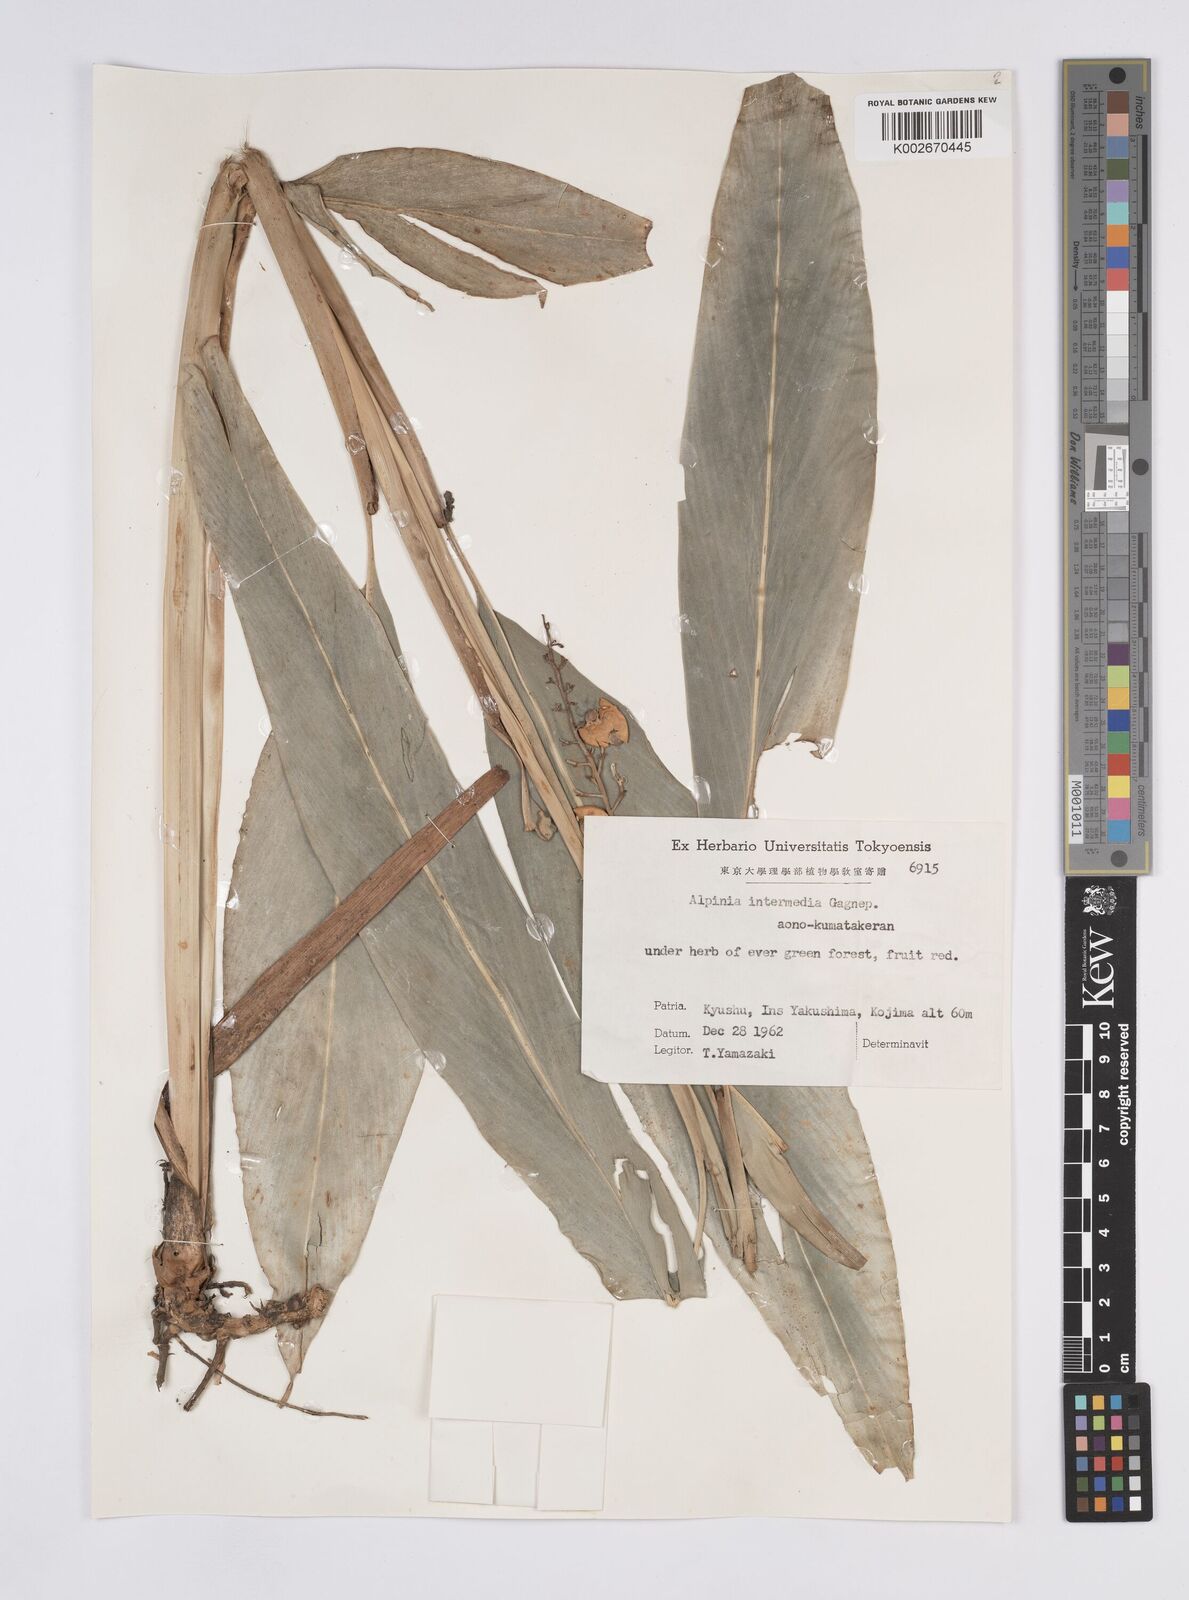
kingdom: Plantae
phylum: Tracheophyta
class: Liliopsida
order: Zingiberales
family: Zingiberaceae
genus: Alpinia
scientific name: Alpinia intermedia
